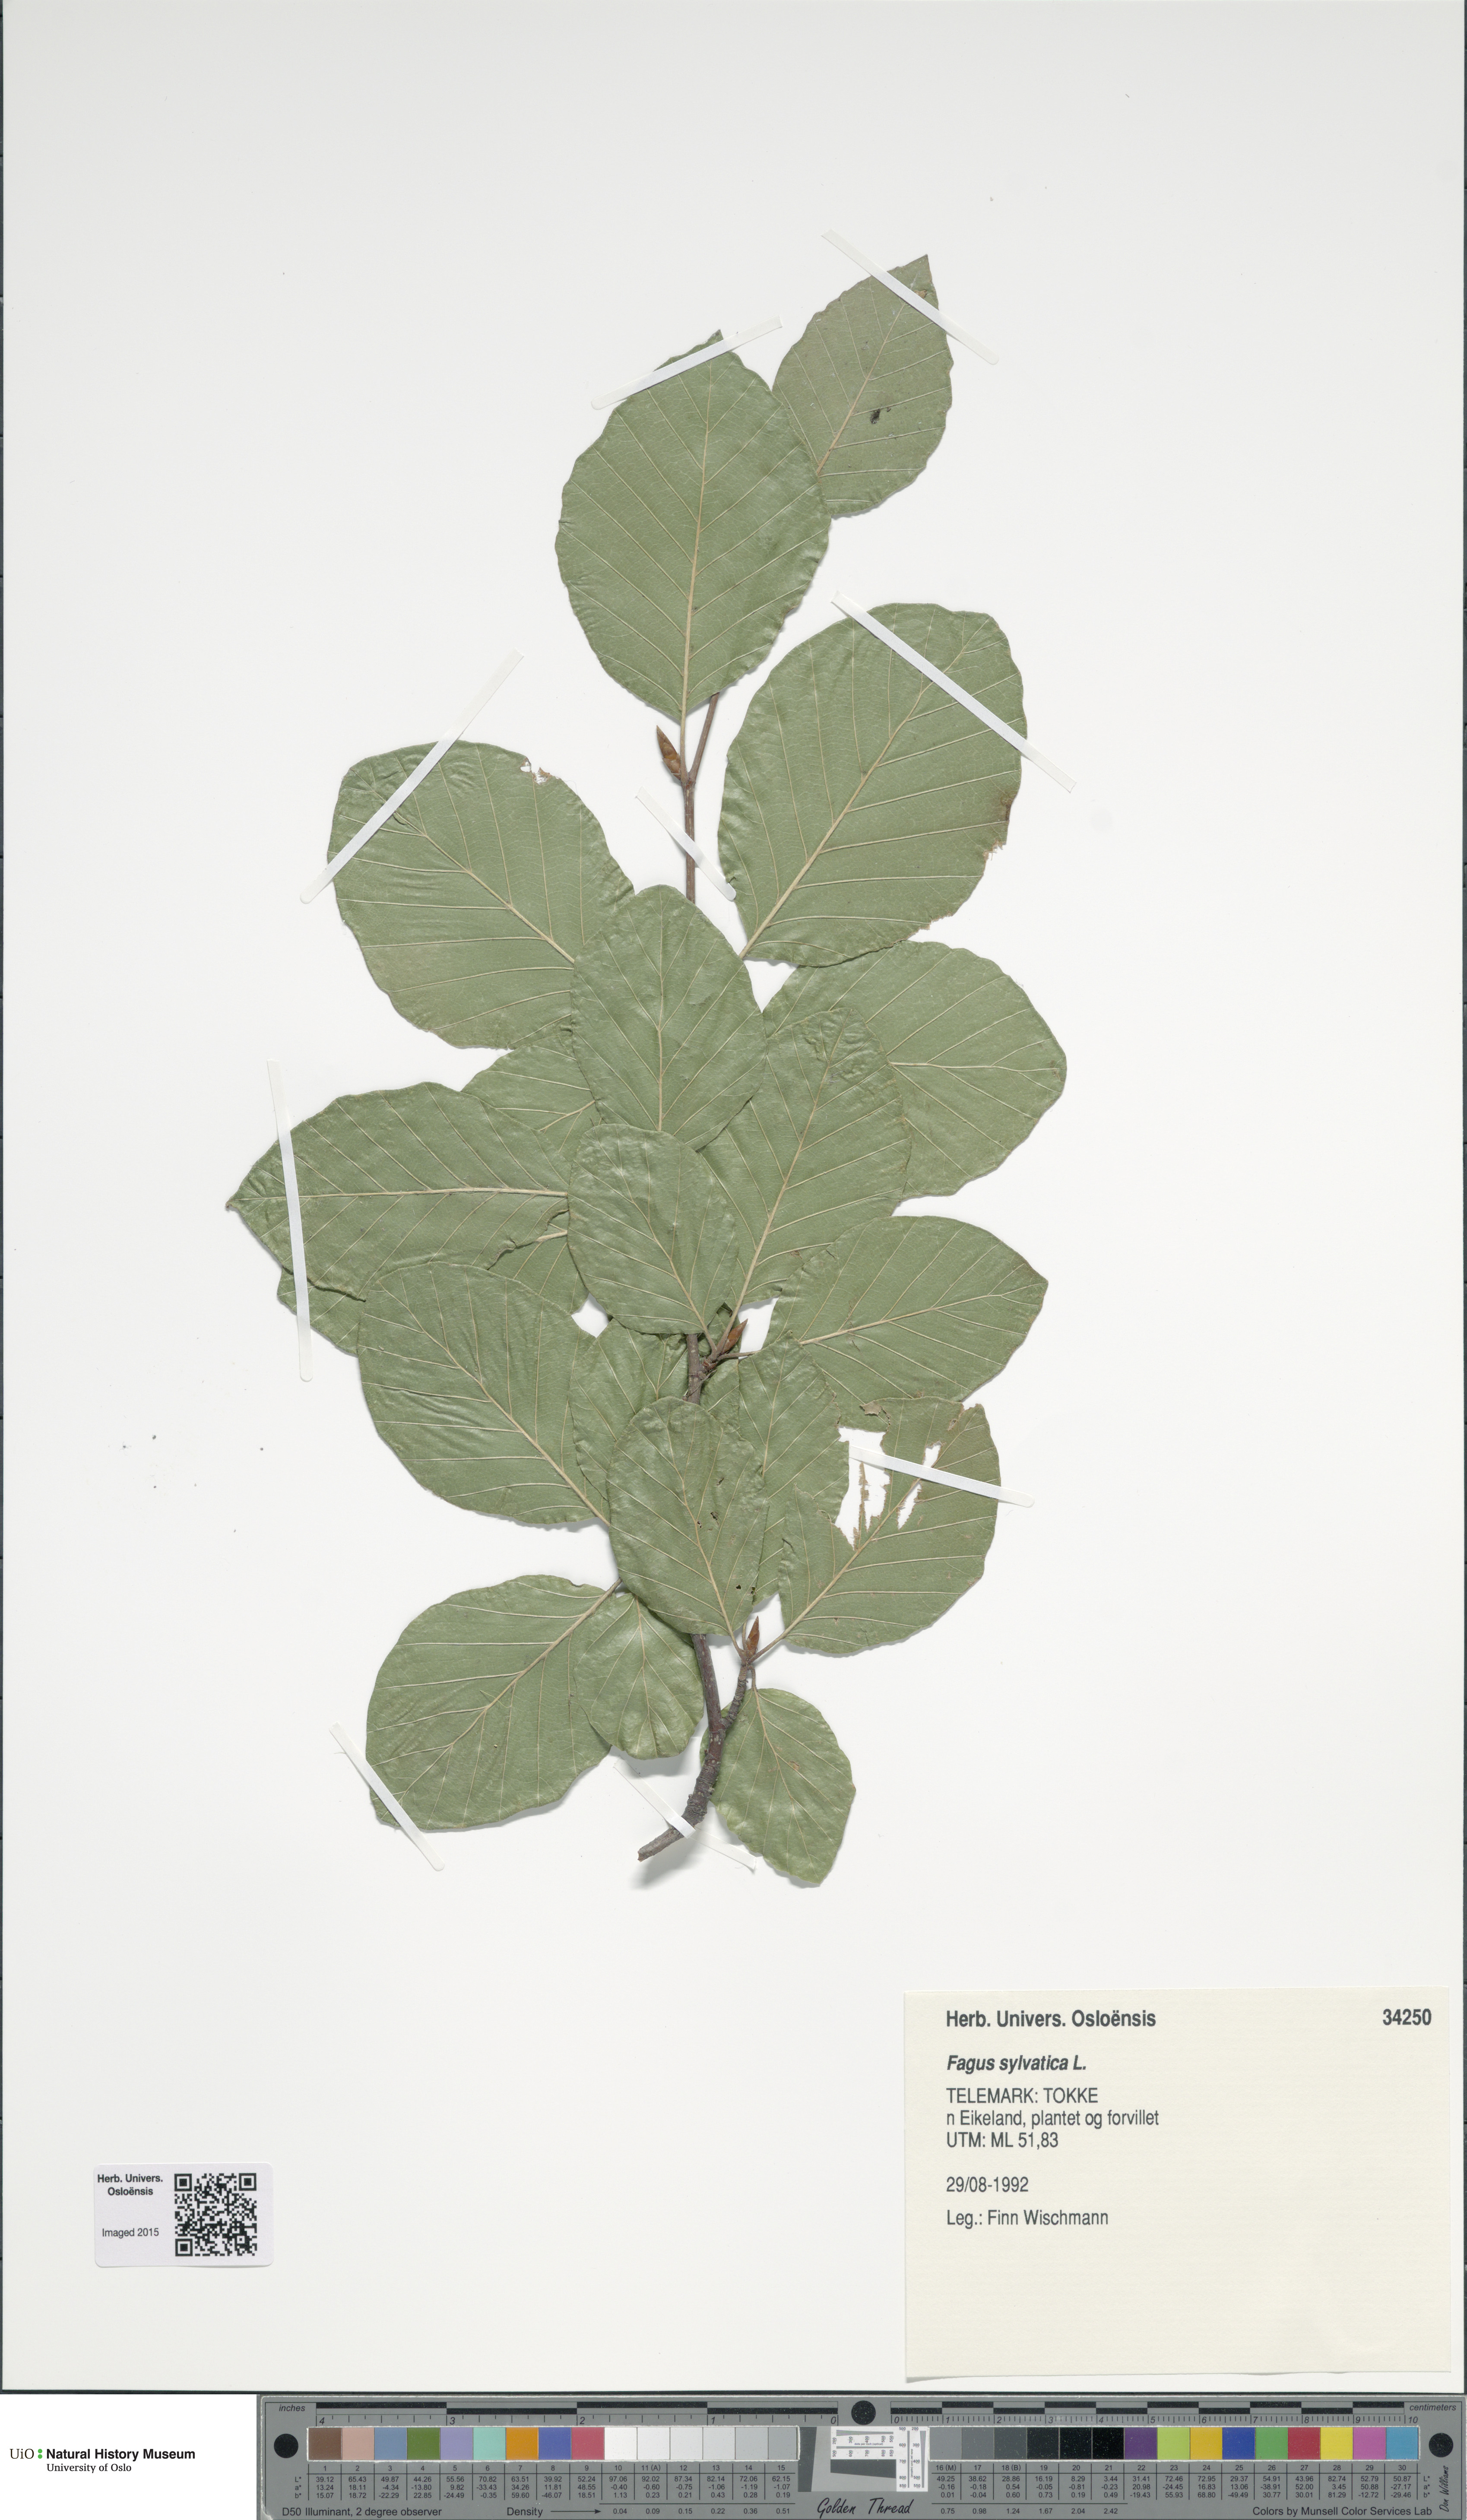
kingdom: Plantae
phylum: Tracheophyta
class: Magnoliopsida
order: Fagales
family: Fagaceae
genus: Fagus
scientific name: Fagus sylvatica
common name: Beech
